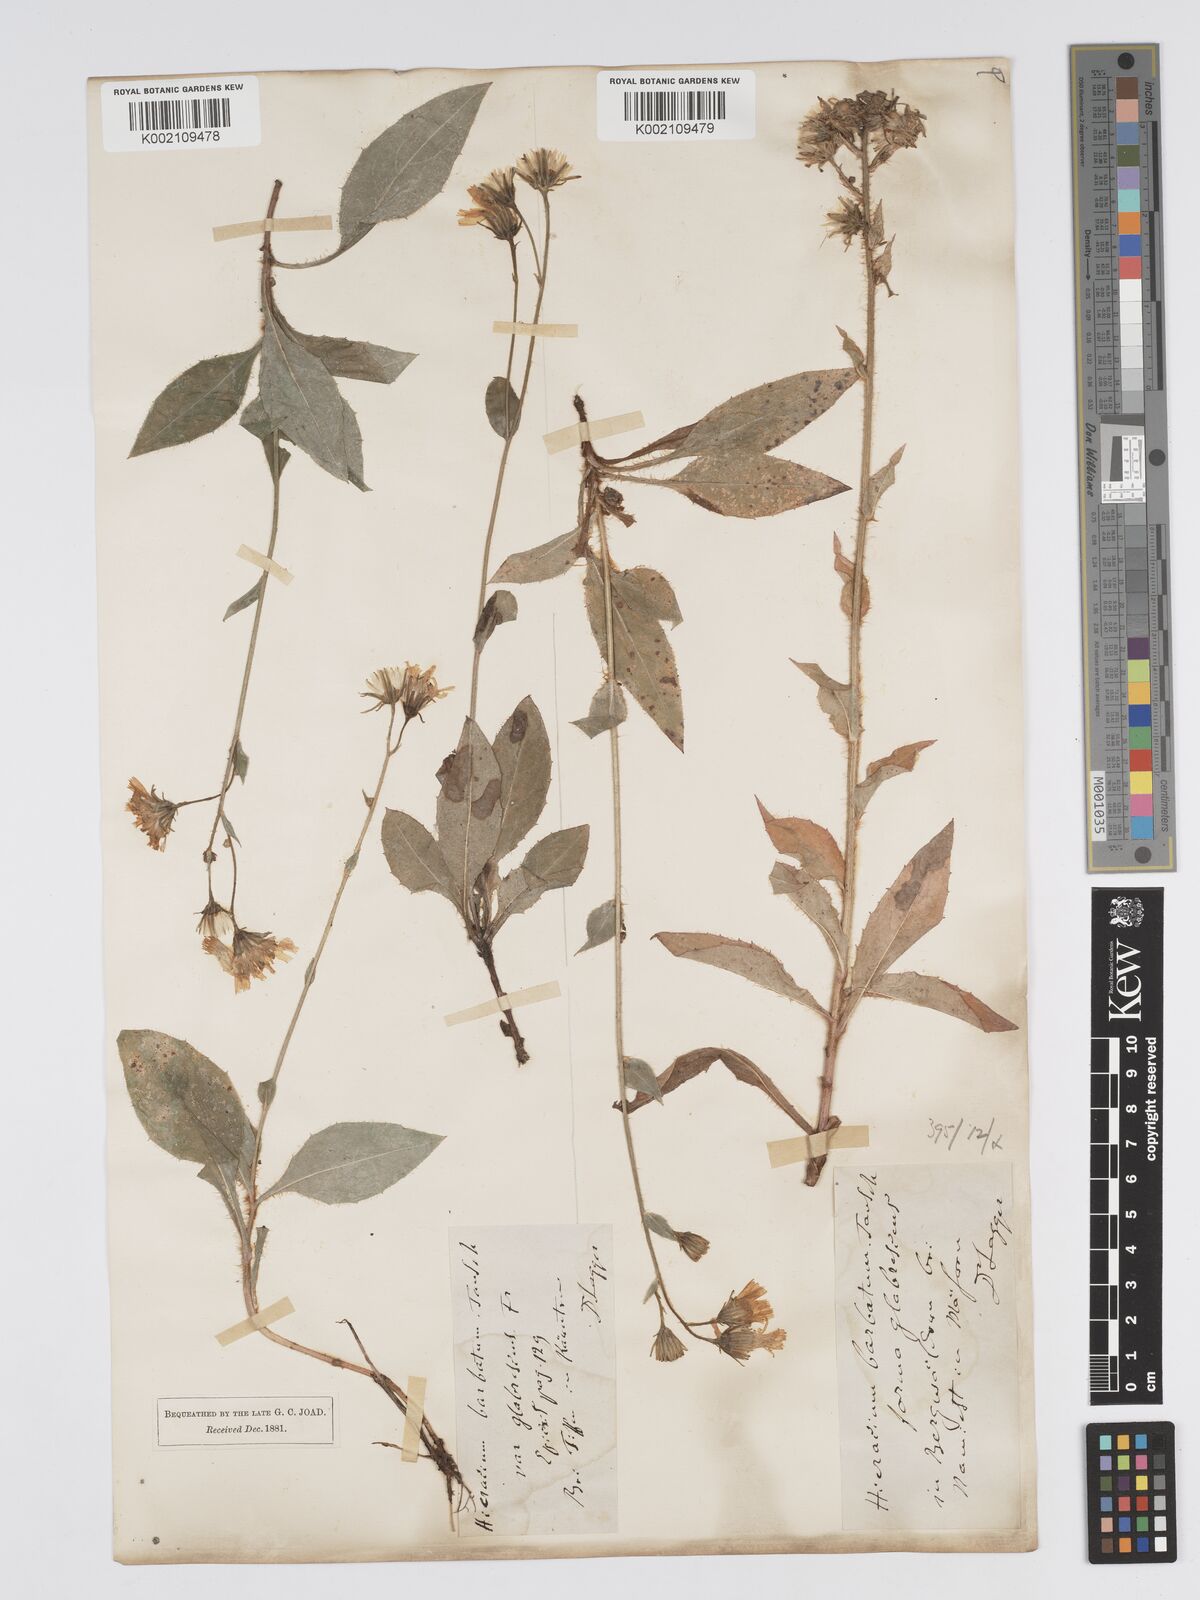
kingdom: Plantae
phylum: Tracheophyta
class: Magnoliopsida
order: Asterales
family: Asteraceae
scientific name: Asteraceae
